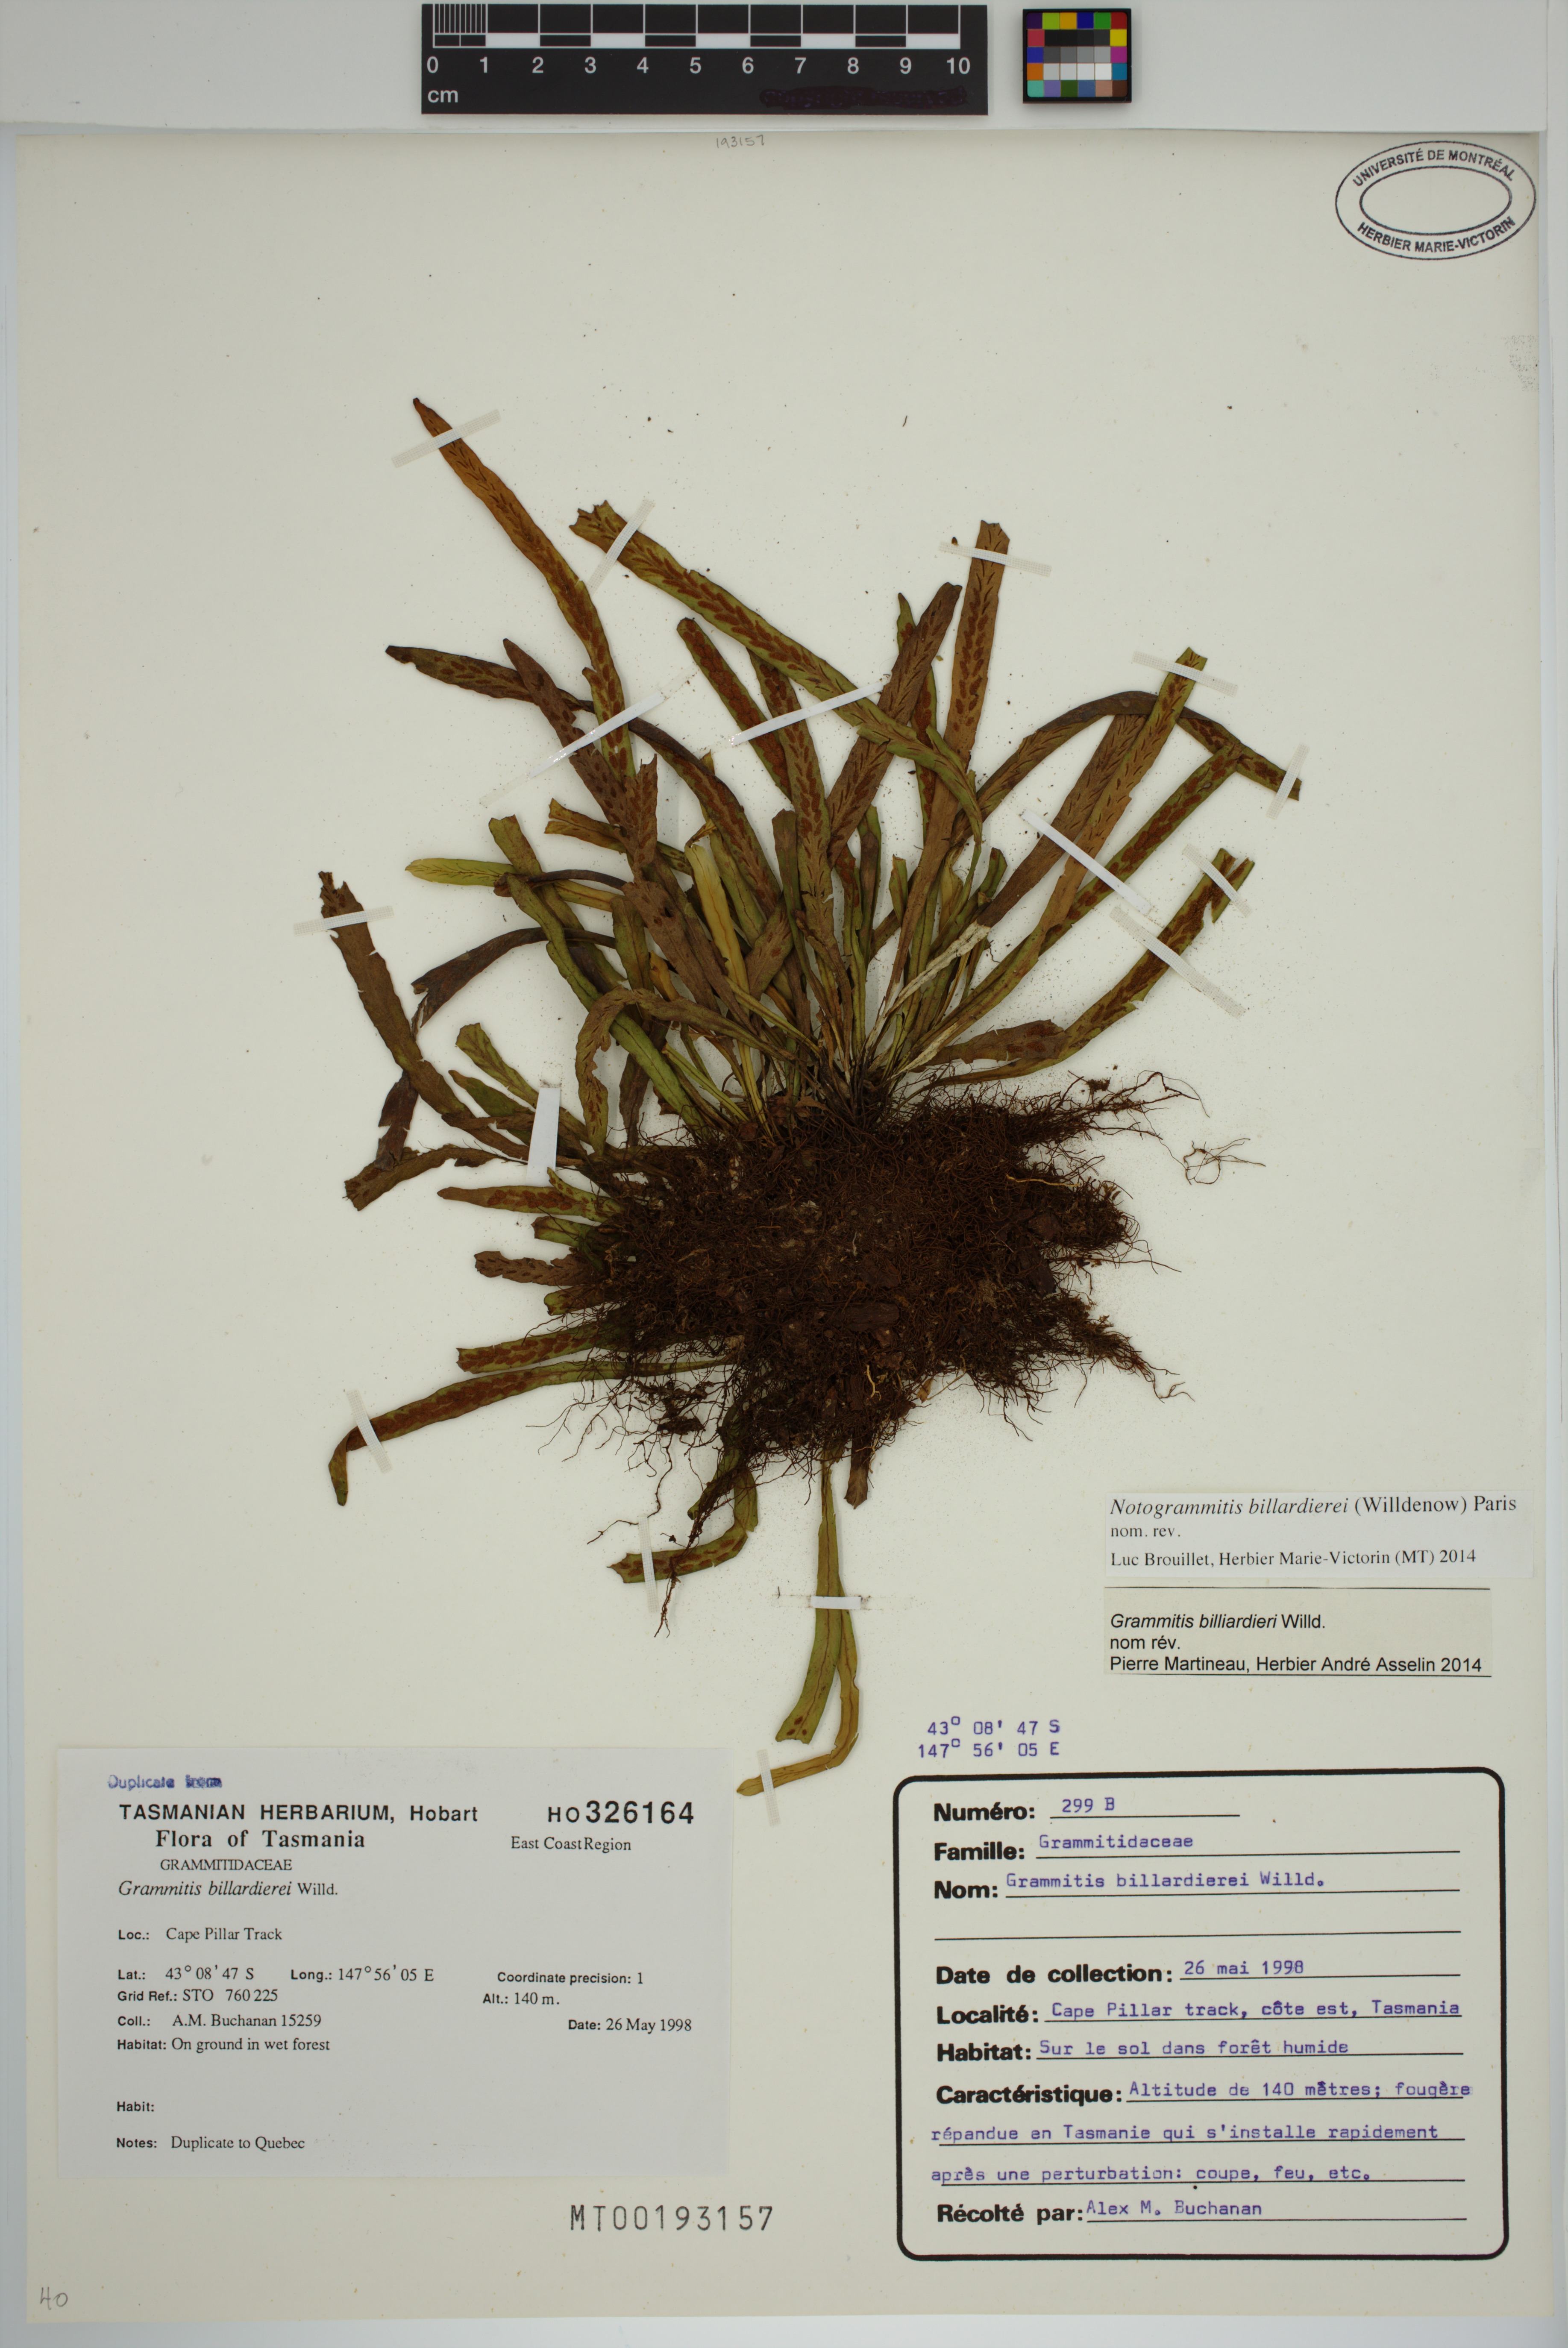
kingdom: Plantae
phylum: Tracheophyta
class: Polypodiopsida
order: Polypodiales
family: Polypodiaceae
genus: Notogrammitis
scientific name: Notogrammitis billardierei
